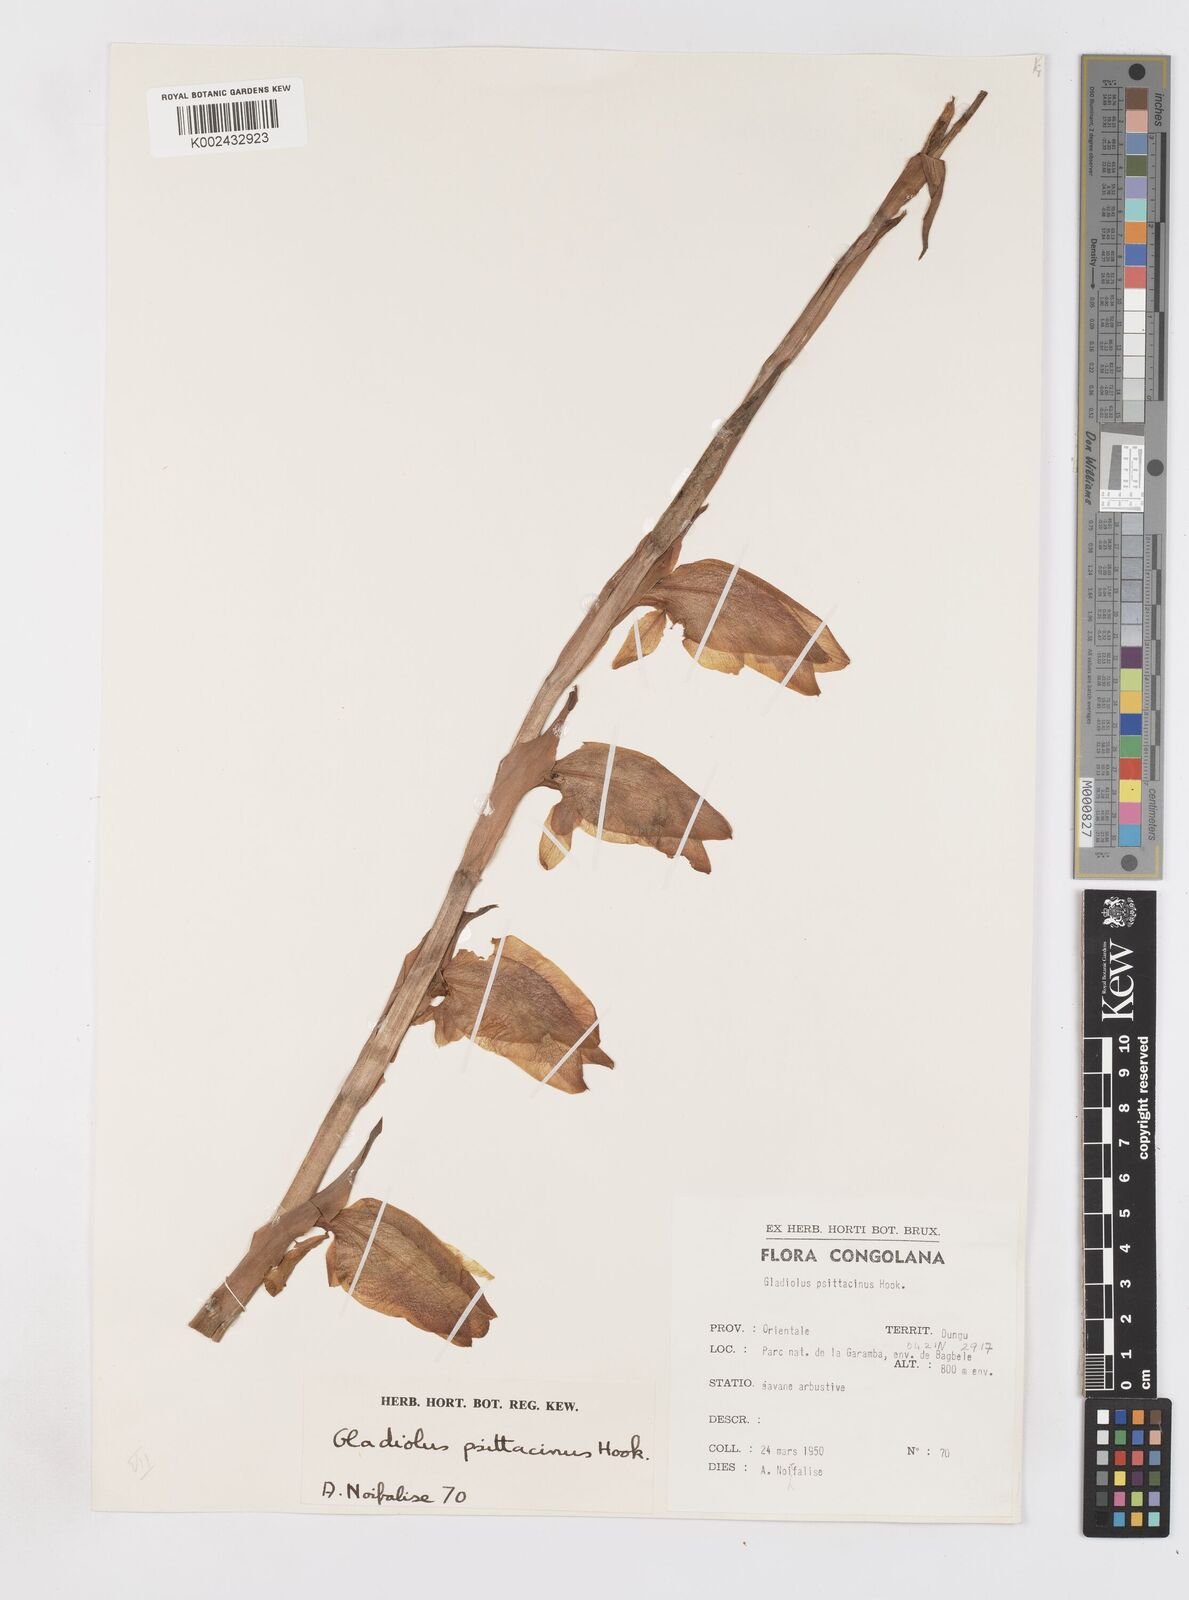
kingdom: Plantae
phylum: Tracheophyta
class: Liliopsida
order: Asparagales
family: Iridaceae
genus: Gladiolus
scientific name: Gladiolus dalenii
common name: Cornflag
